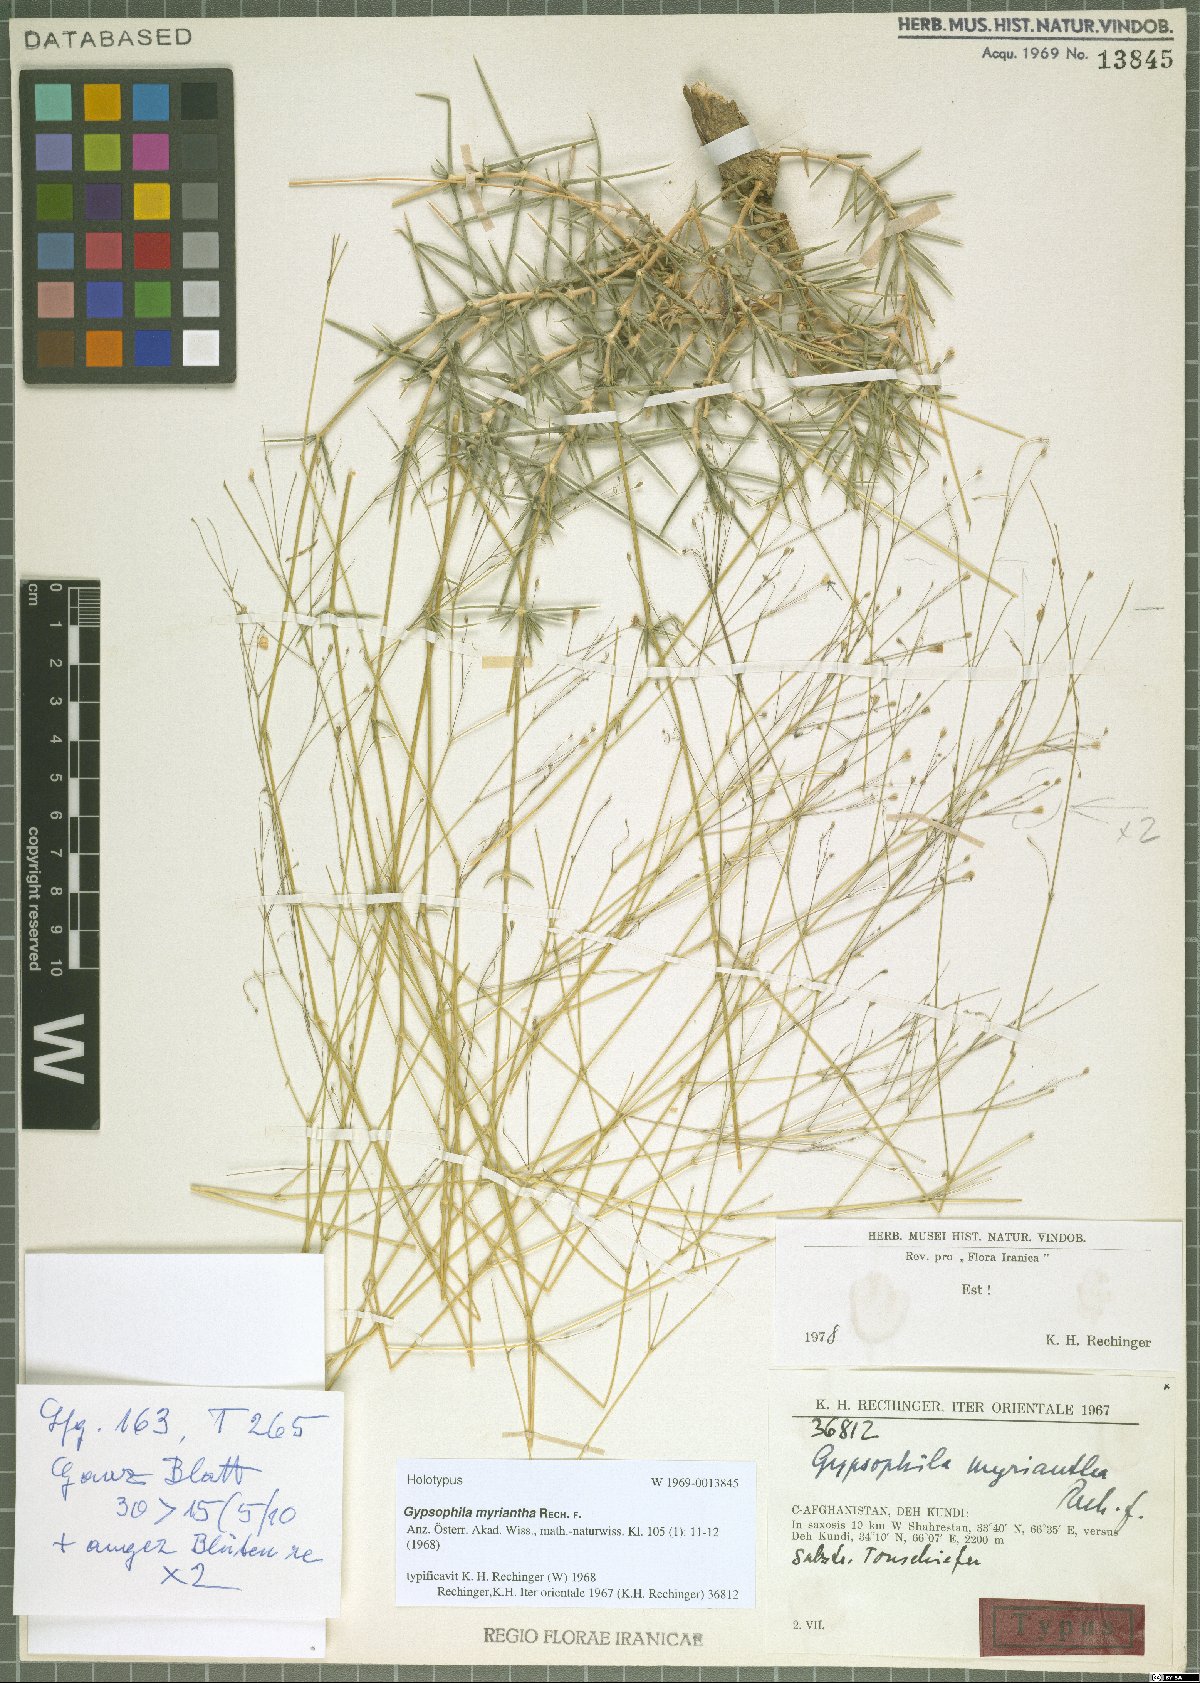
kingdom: Plantae
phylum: Tracheophyta
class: Magnoliopsida
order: Caryophyllales
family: Caryophyllaceae
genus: Acanthophyllum
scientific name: Acanthophyllum myrianthum
